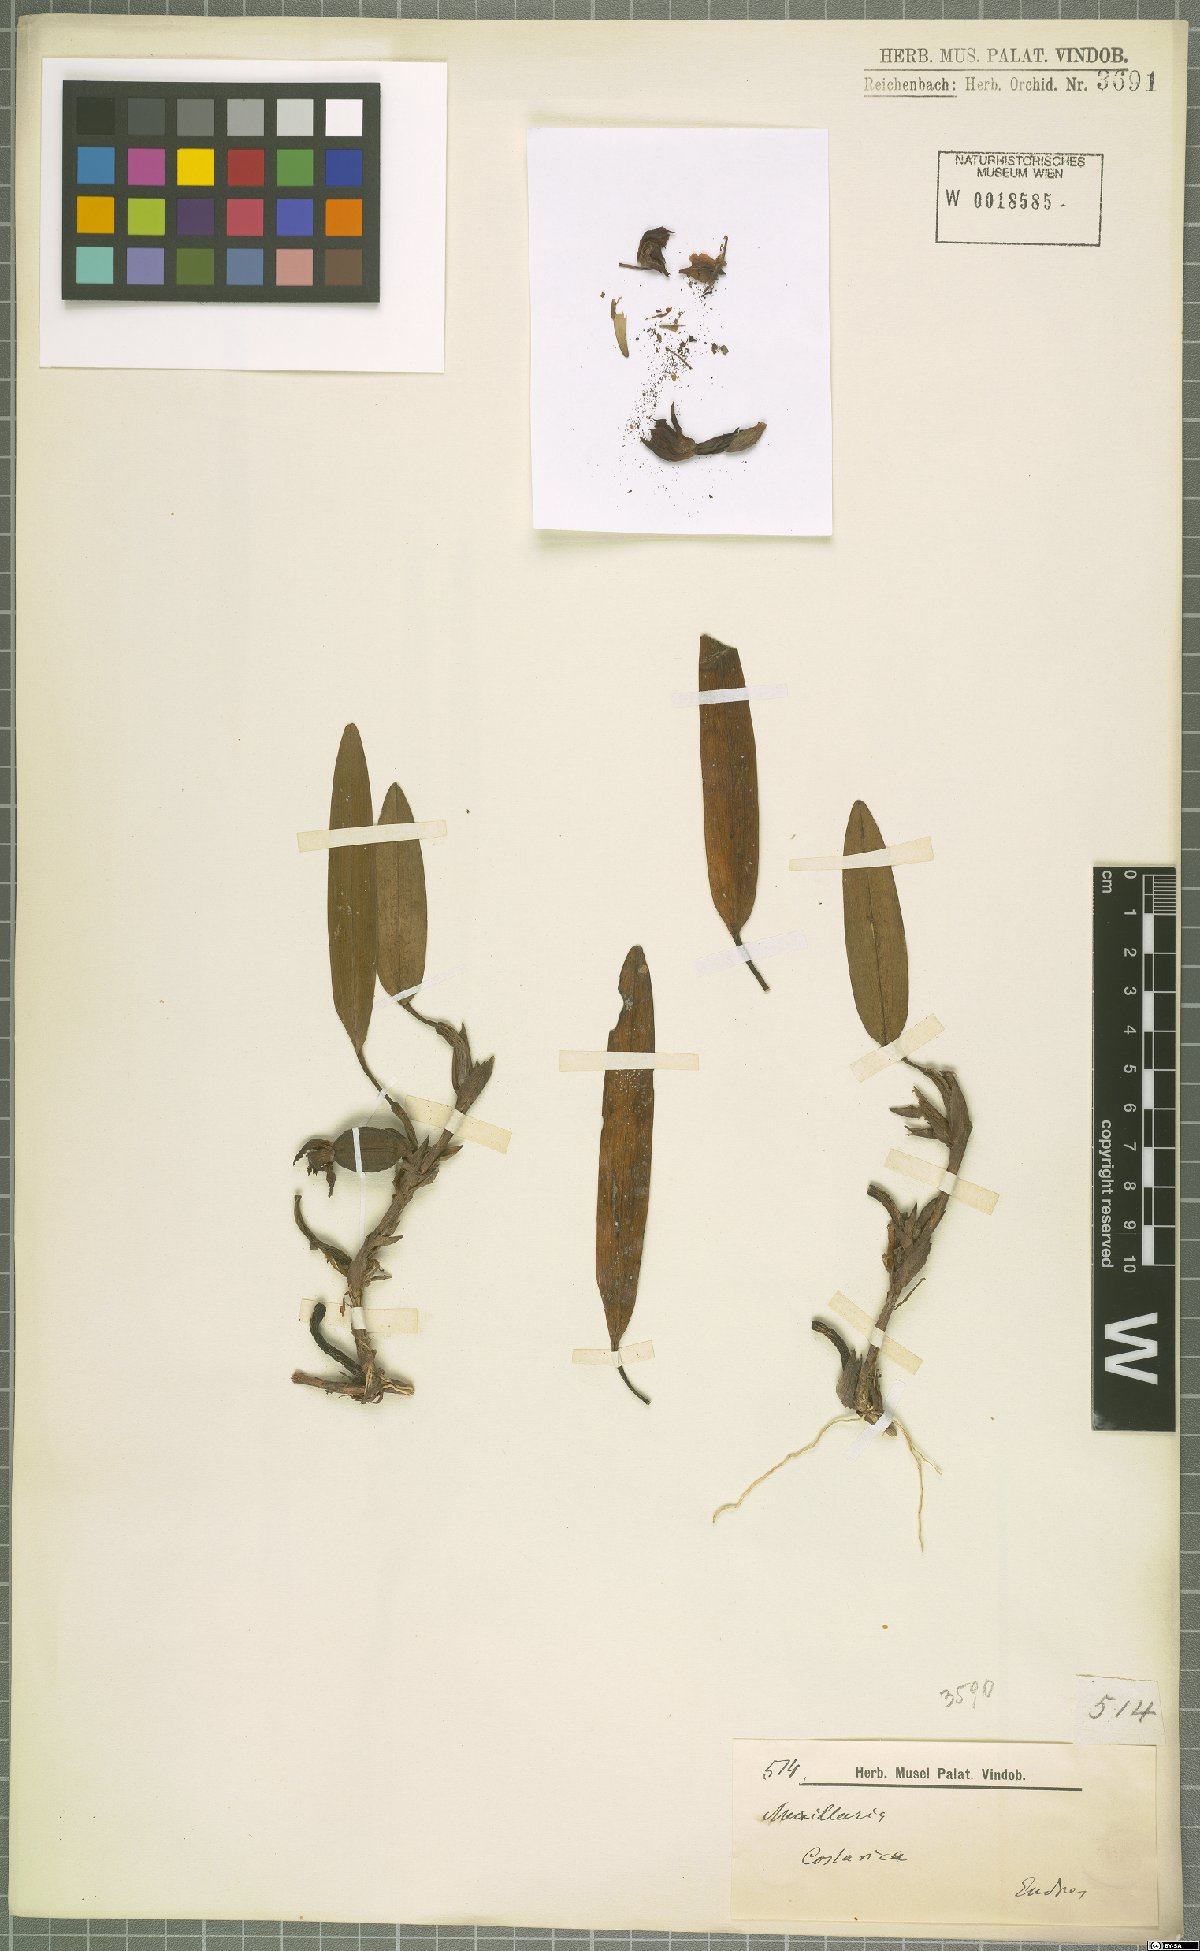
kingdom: Plantae
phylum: Tracheophyta
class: Liliopsida
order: Asparagales
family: Orchidaceae
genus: Maxillaria
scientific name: Maxillaria
